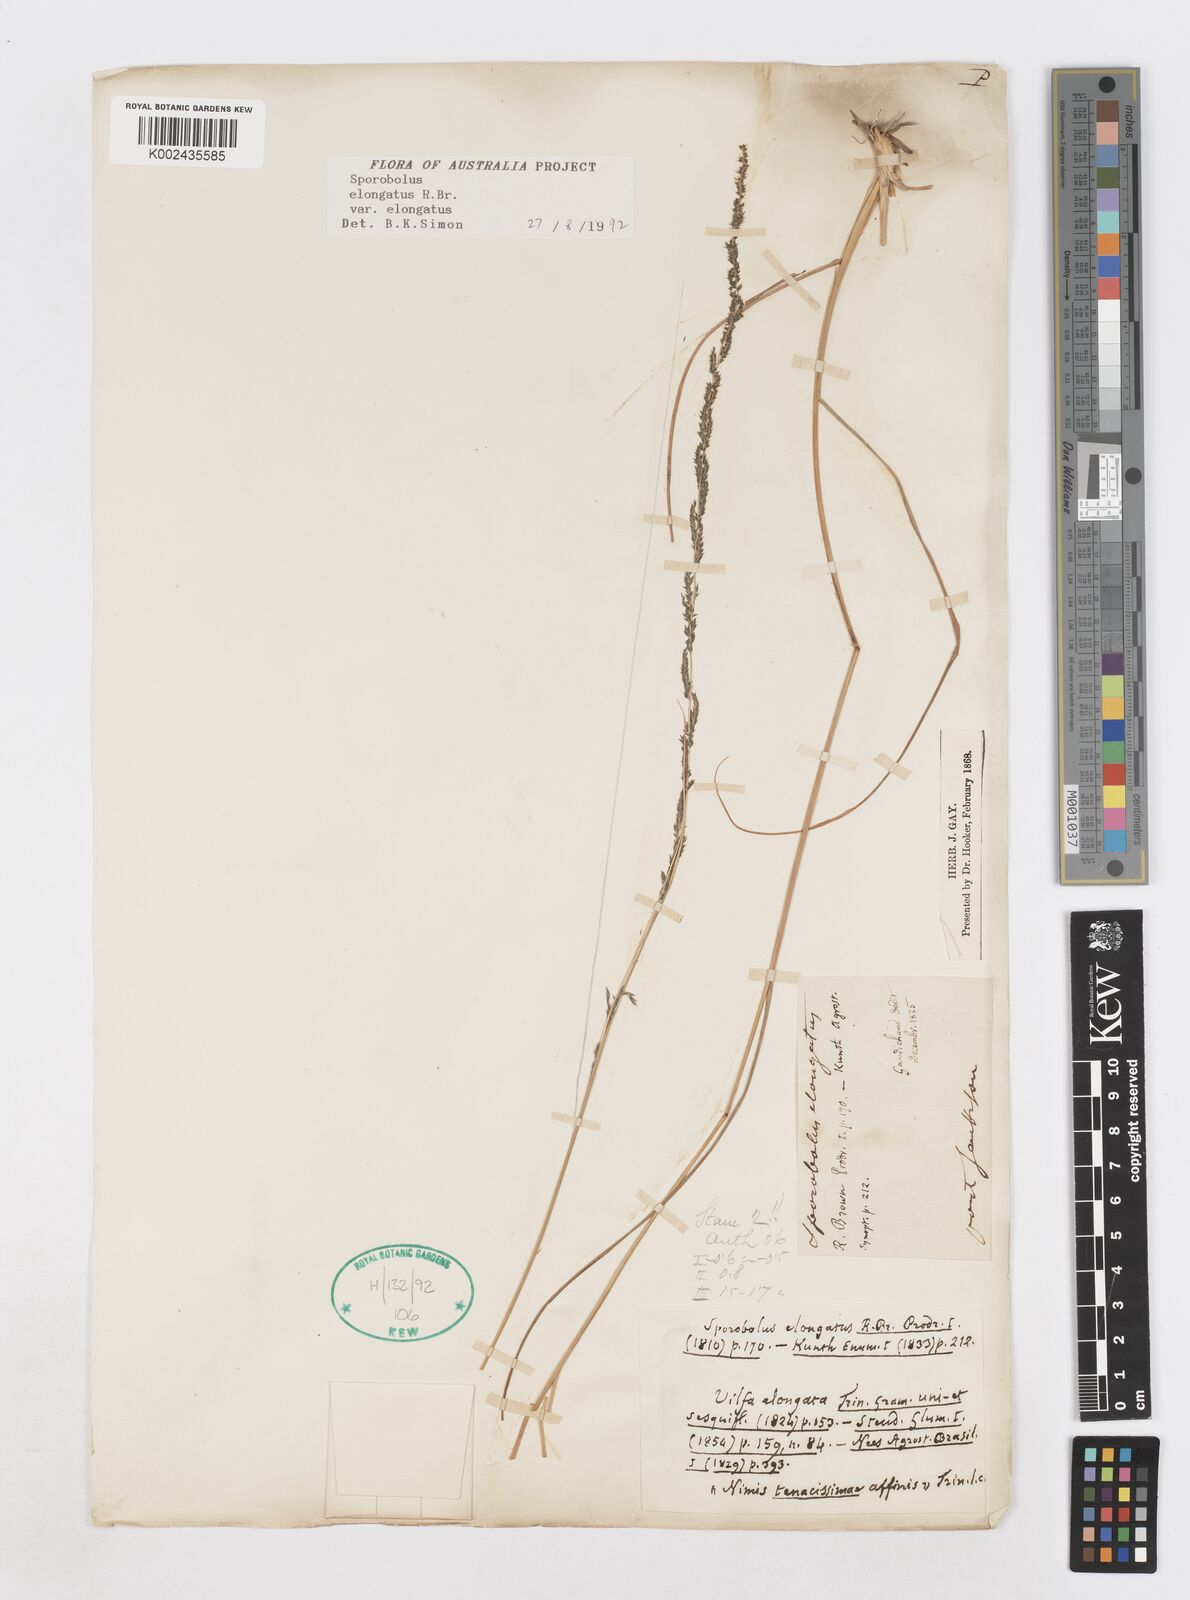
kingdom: Plantae
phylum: Tracheophyta
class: Liliopsida
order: Poales
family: Poaceae
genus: Sporobolus
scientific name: Sporobolus elongatus
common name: Rat tail grass
